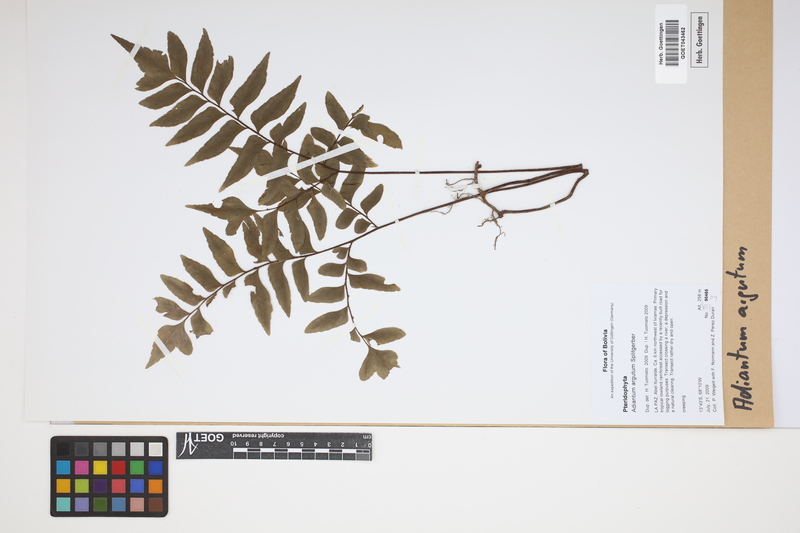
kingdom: Plantae
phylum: Tracheophyta
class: Polypodiopsida
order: Polypodiales
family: Pteridaceae
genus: Adiantum
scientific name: Adiantum argutum
